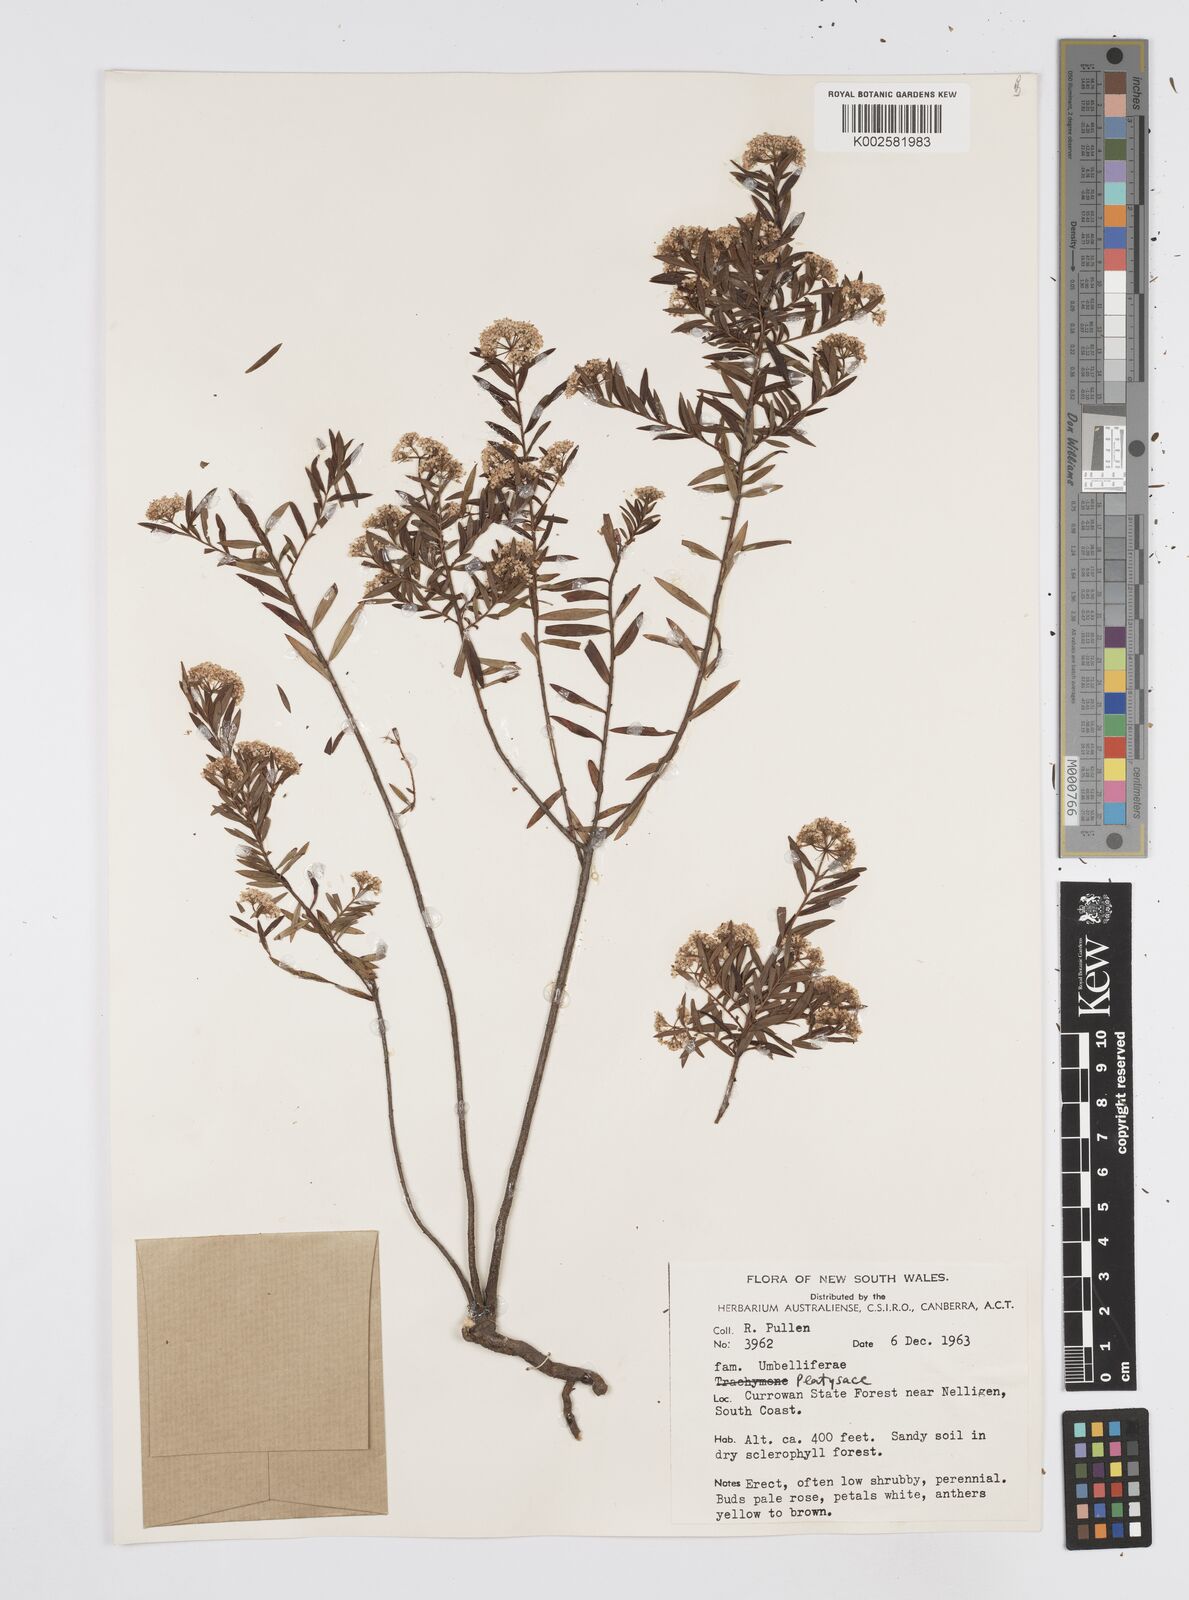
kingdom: Plantae
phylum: Tracheophyta
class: Magnoliopsida
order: Apiales
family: Apiaceae
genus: Platysace
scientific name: Platysace
